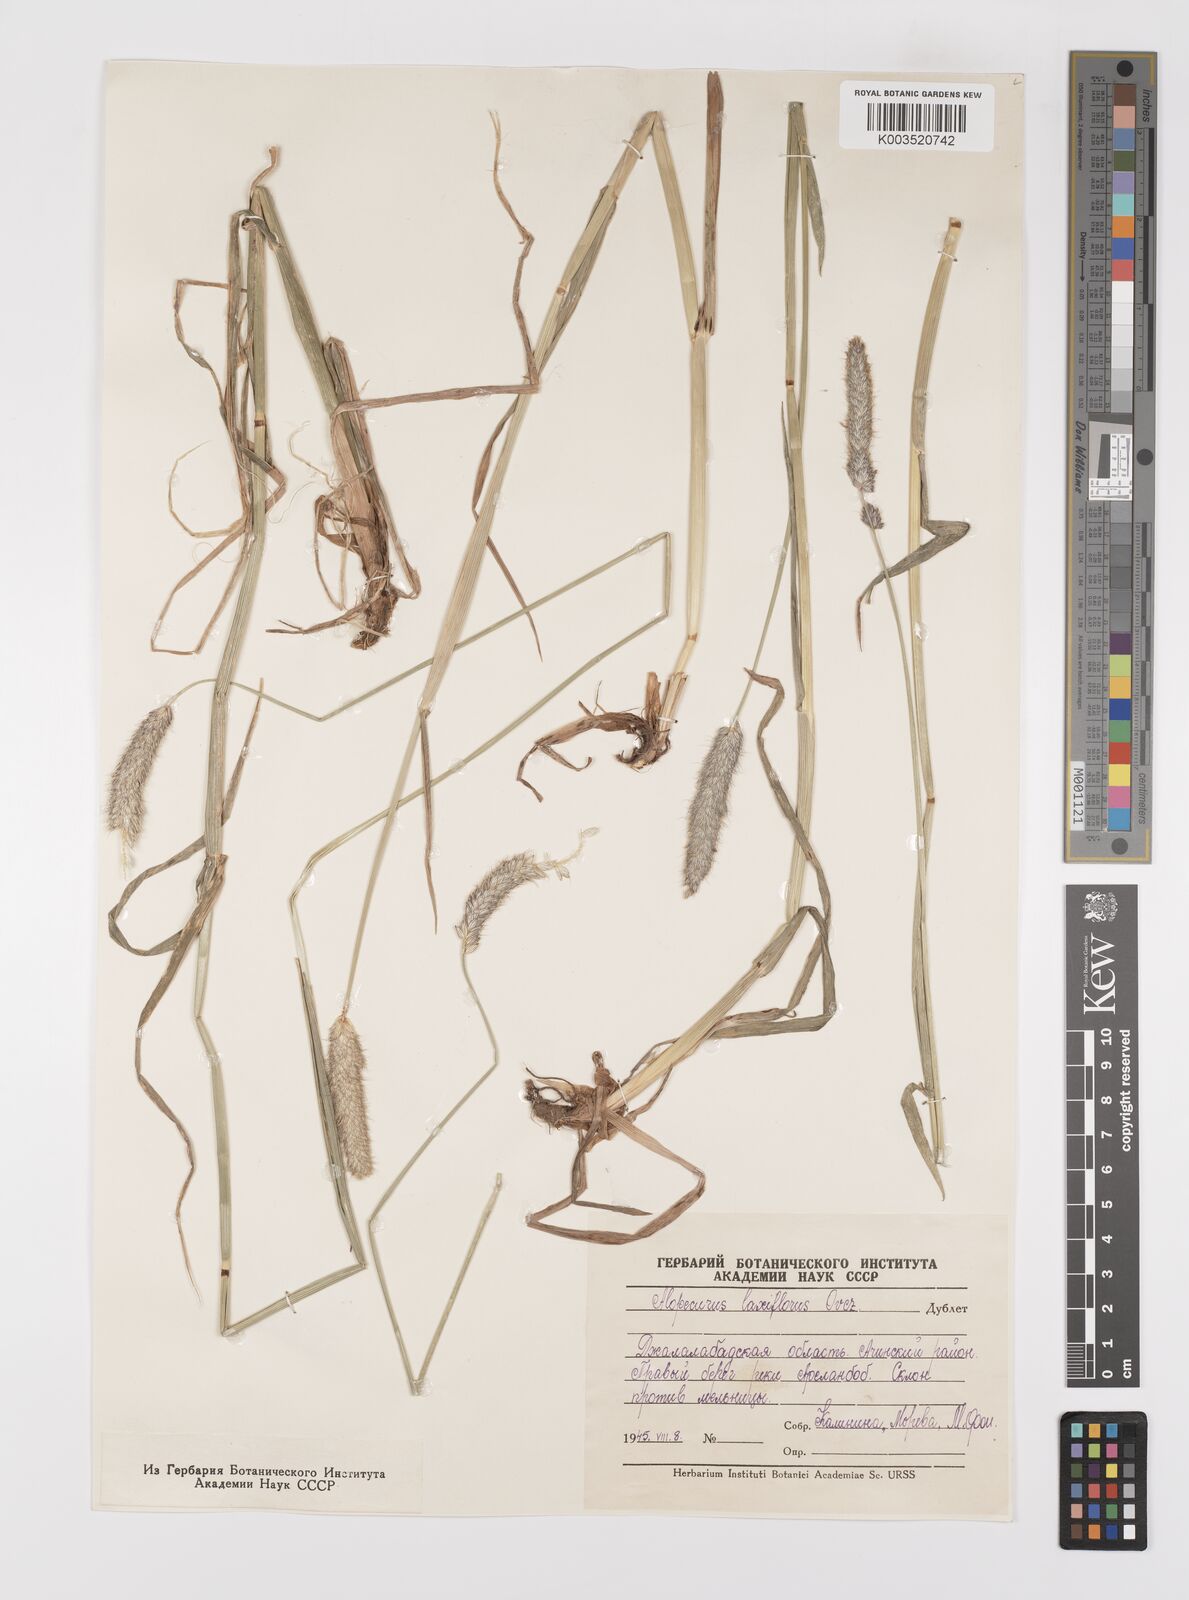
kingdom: Plantae
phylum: Tracheophyta
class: Liliopsida
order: Poales
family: Poaceae
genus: Alopecurus
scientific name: Alopecurus pratensis
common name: Meadow foxtail
